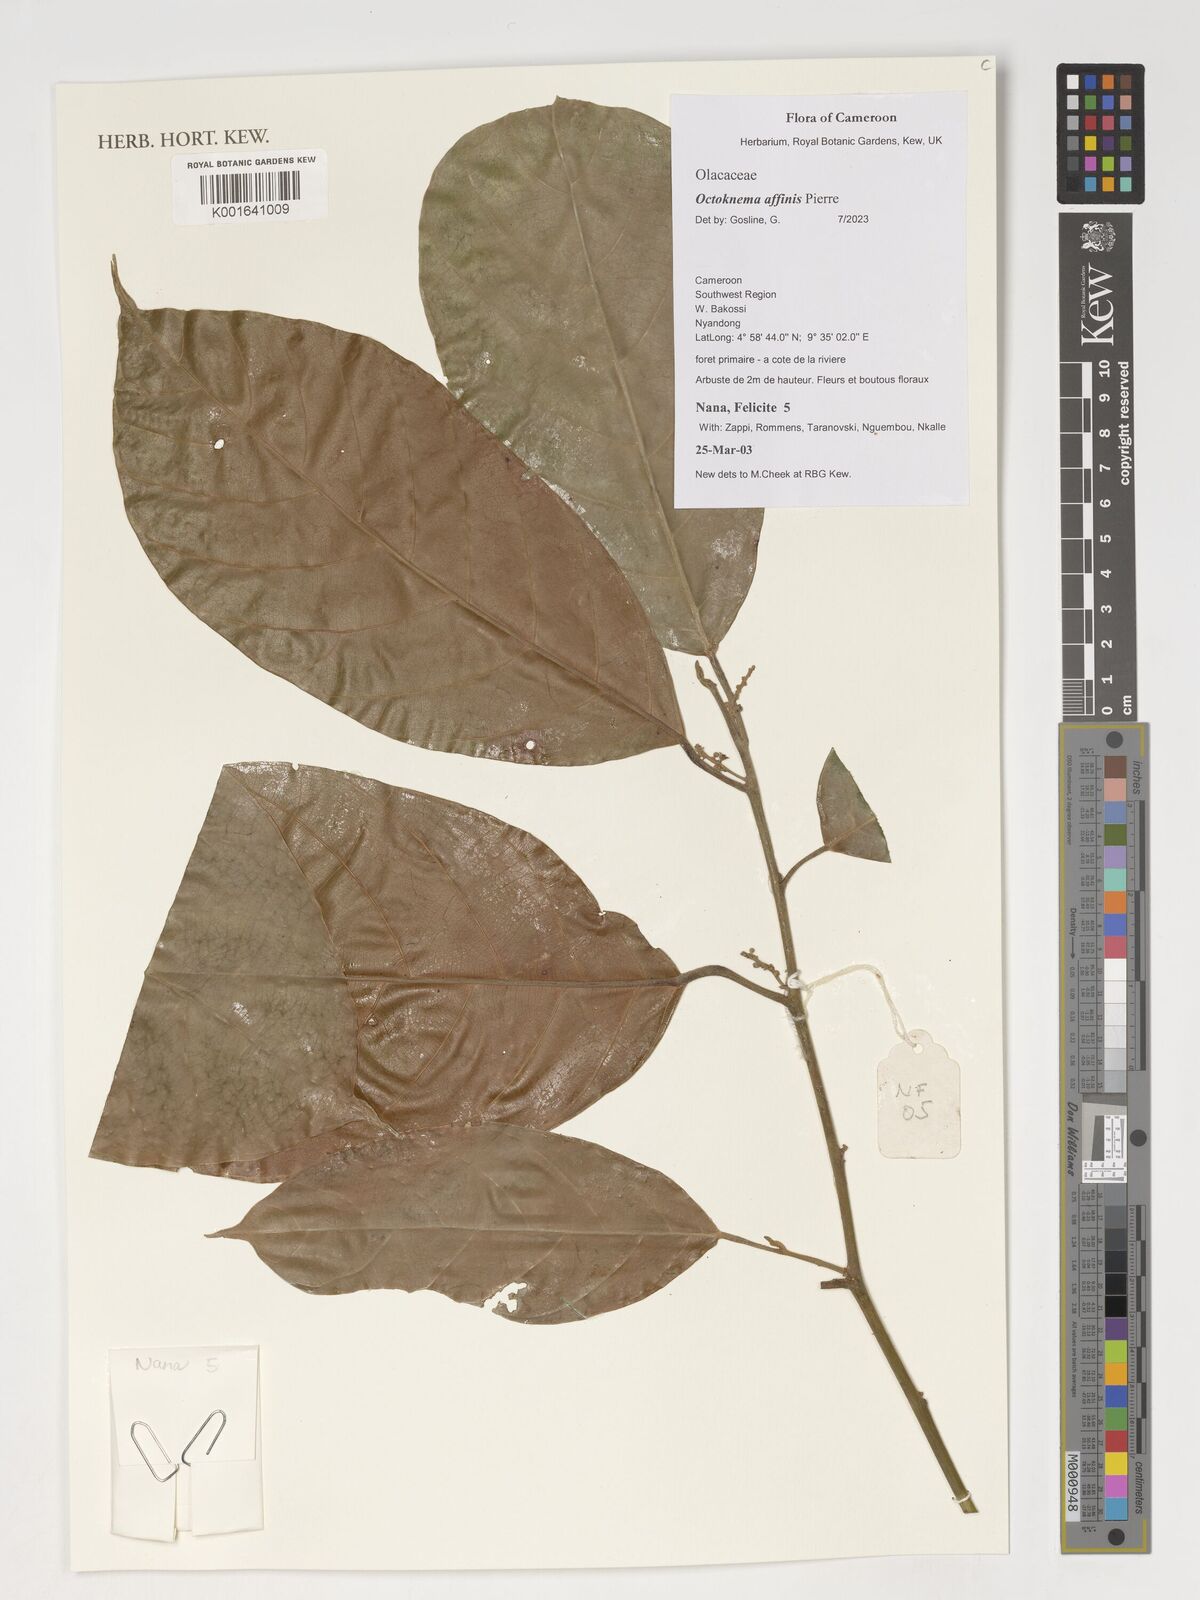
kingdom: Plantae
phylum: Tracheophyta
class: Magnoliopsida
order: Santalales
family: Octoknemaceae
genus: Octoknema
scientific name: Octoknema affinis
